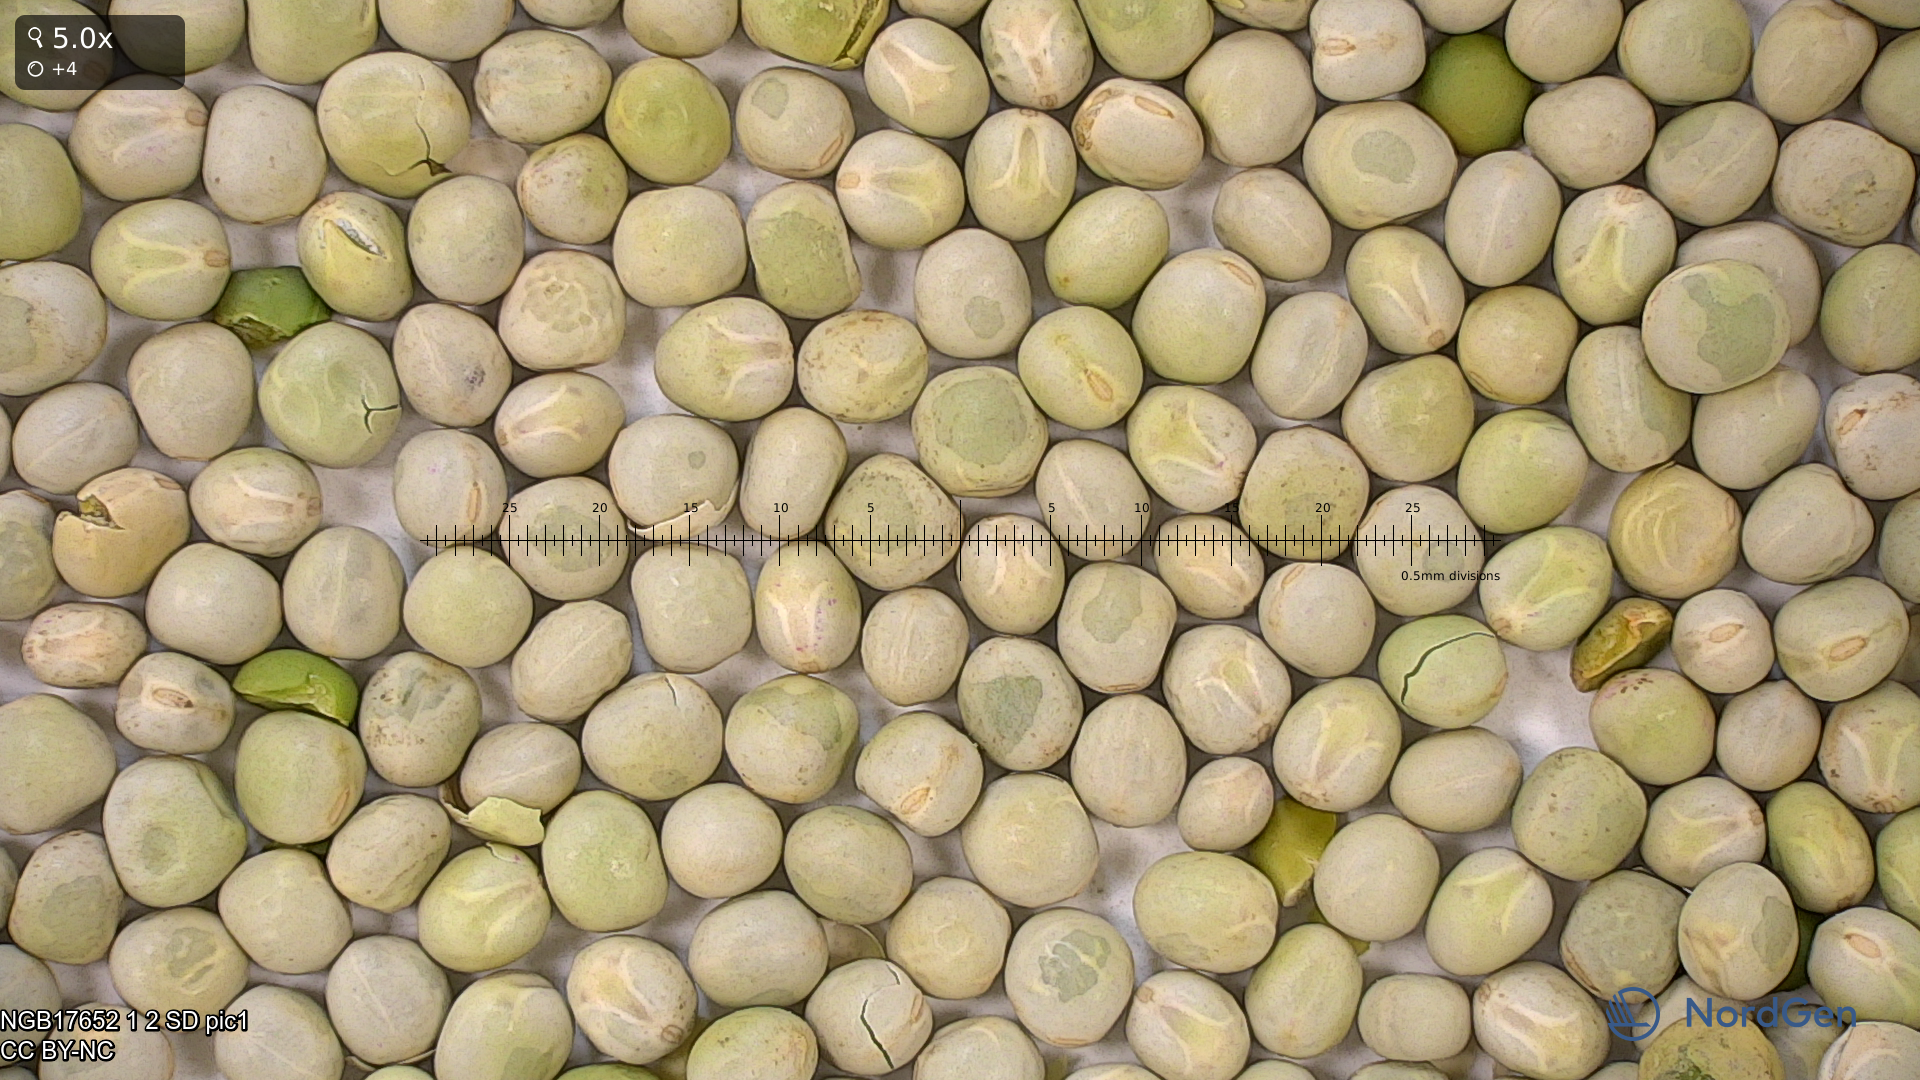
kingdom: Plantae
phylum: Tracheophyta
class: Magnoliopsida
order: Fabales
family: Fabaceae
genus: Lathyrus
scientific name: Lathyrus oleraceus
